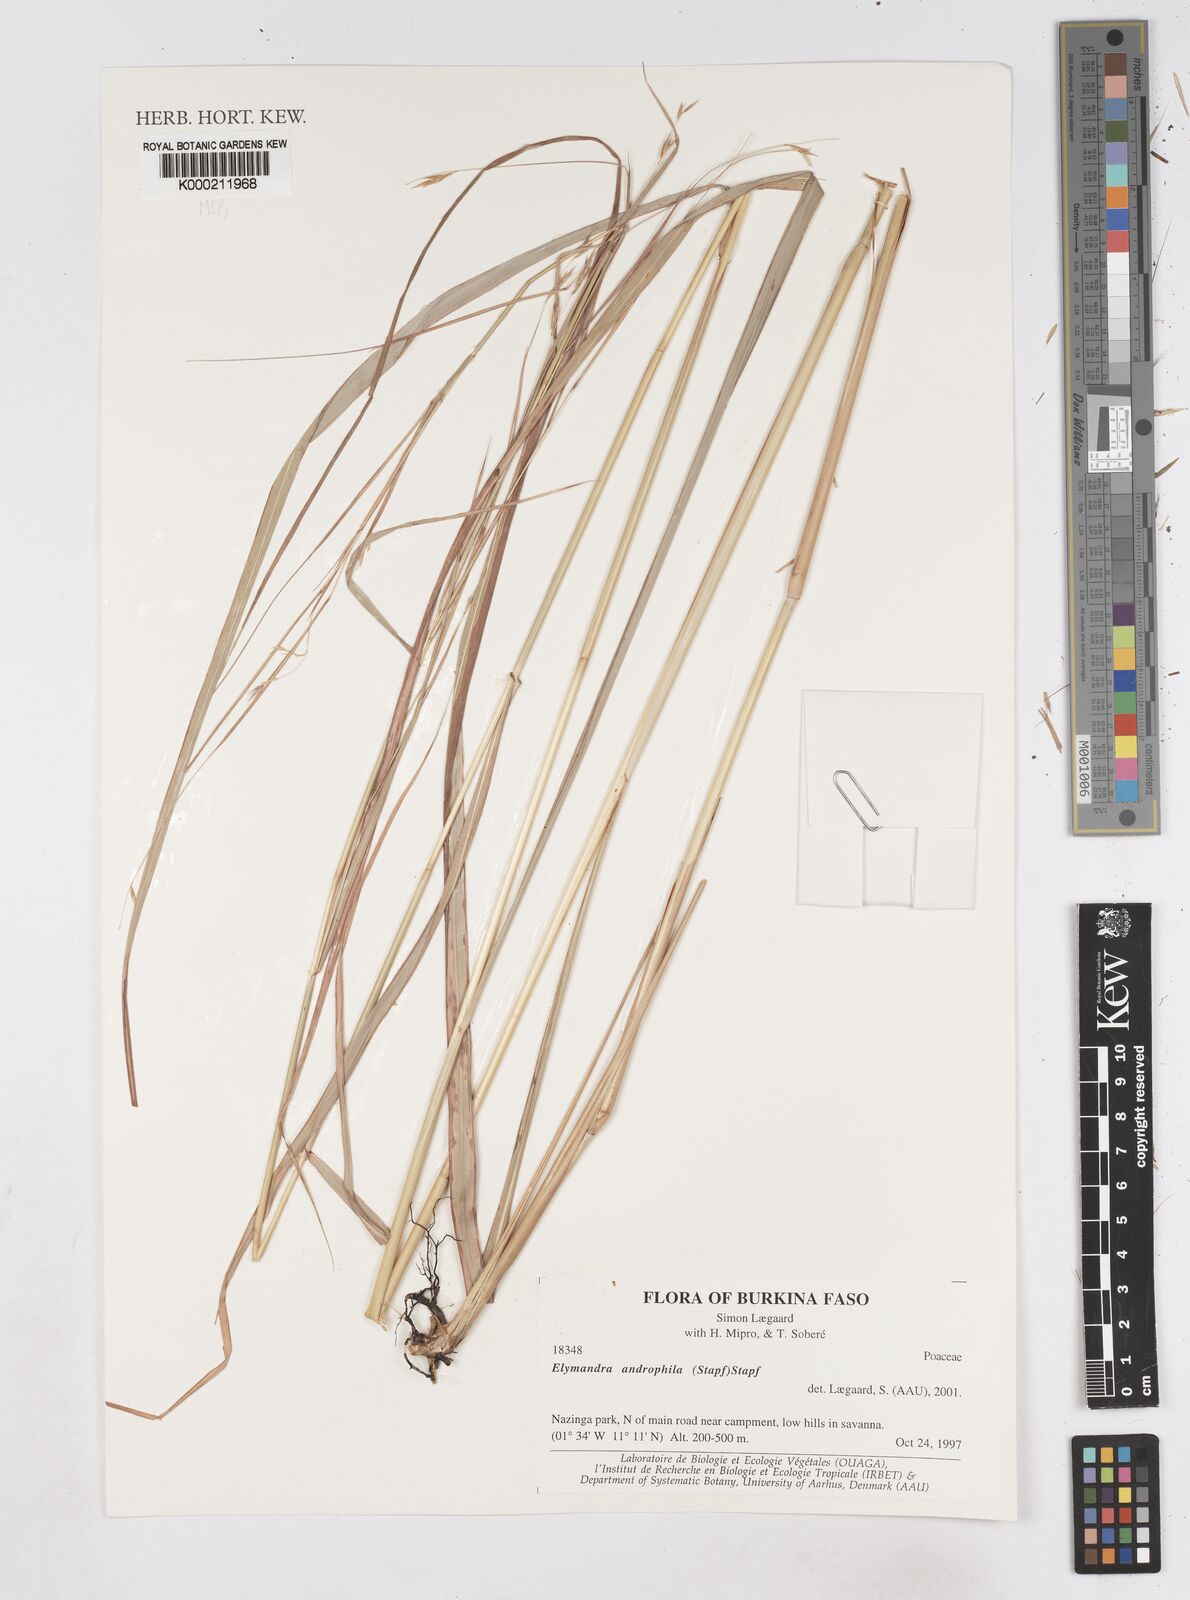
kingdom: Plantae
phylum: Tracheophyta
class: Liliopsida
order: Poales
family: Poaceae
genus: Elymandra
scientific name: Elymandra androphila
